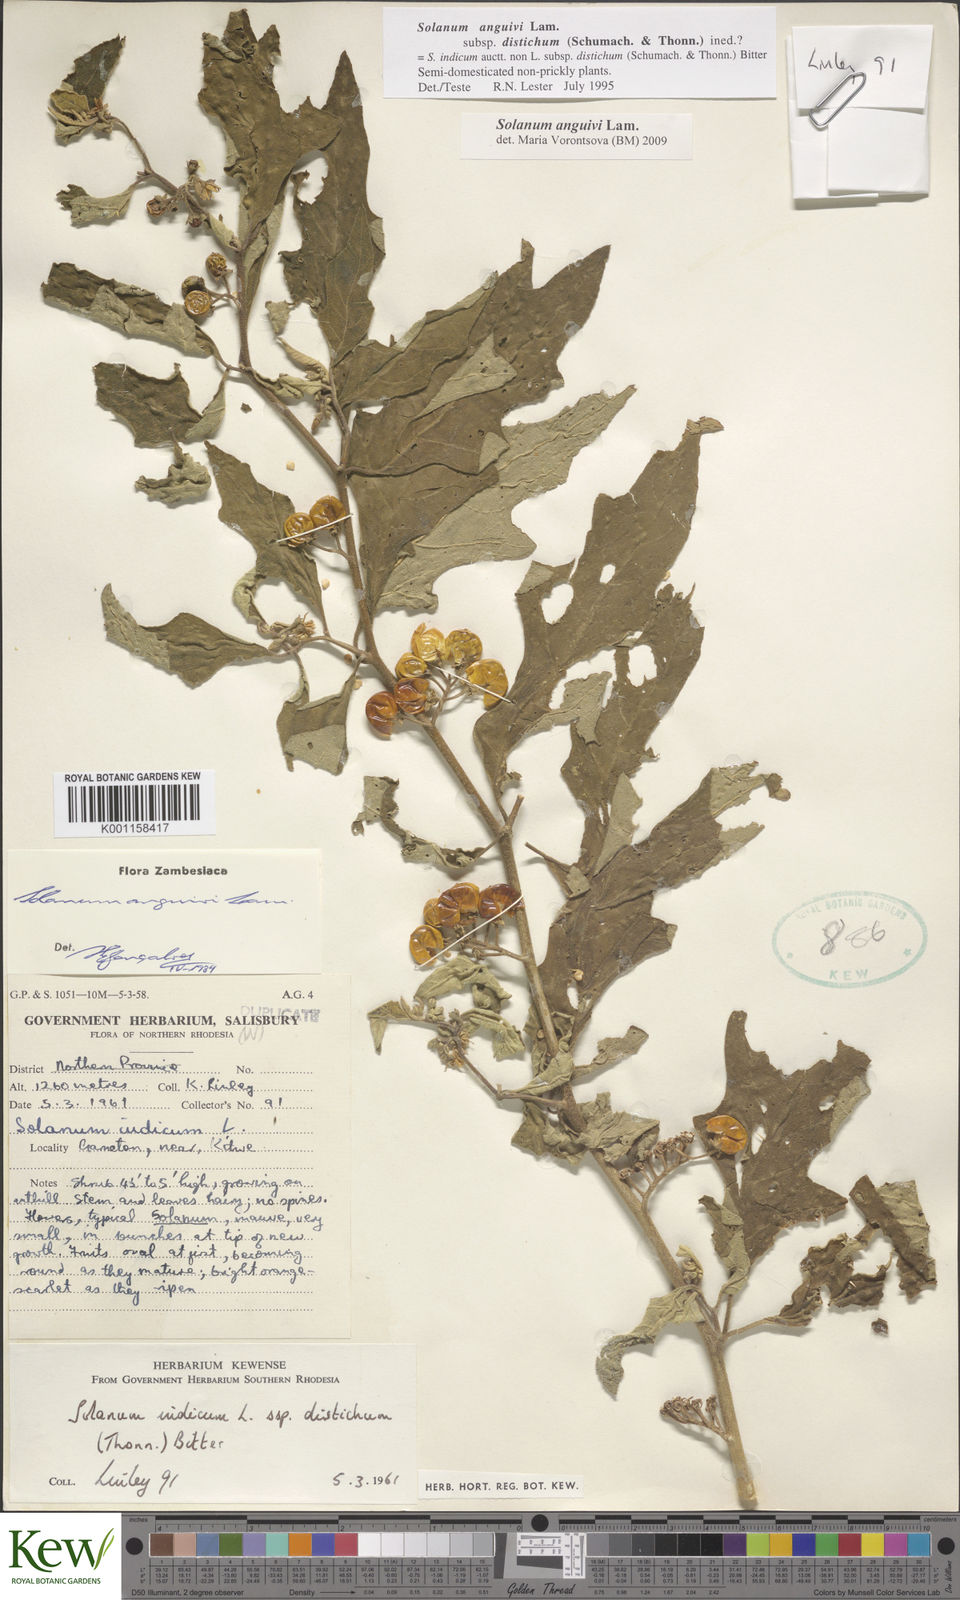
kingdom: Plantae
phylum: Tracheophyta
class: Magnoliopsida
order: Solanales
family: Solanaceae
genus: Solanum
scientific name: Solanum anguivi
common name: Forest bitterberry
